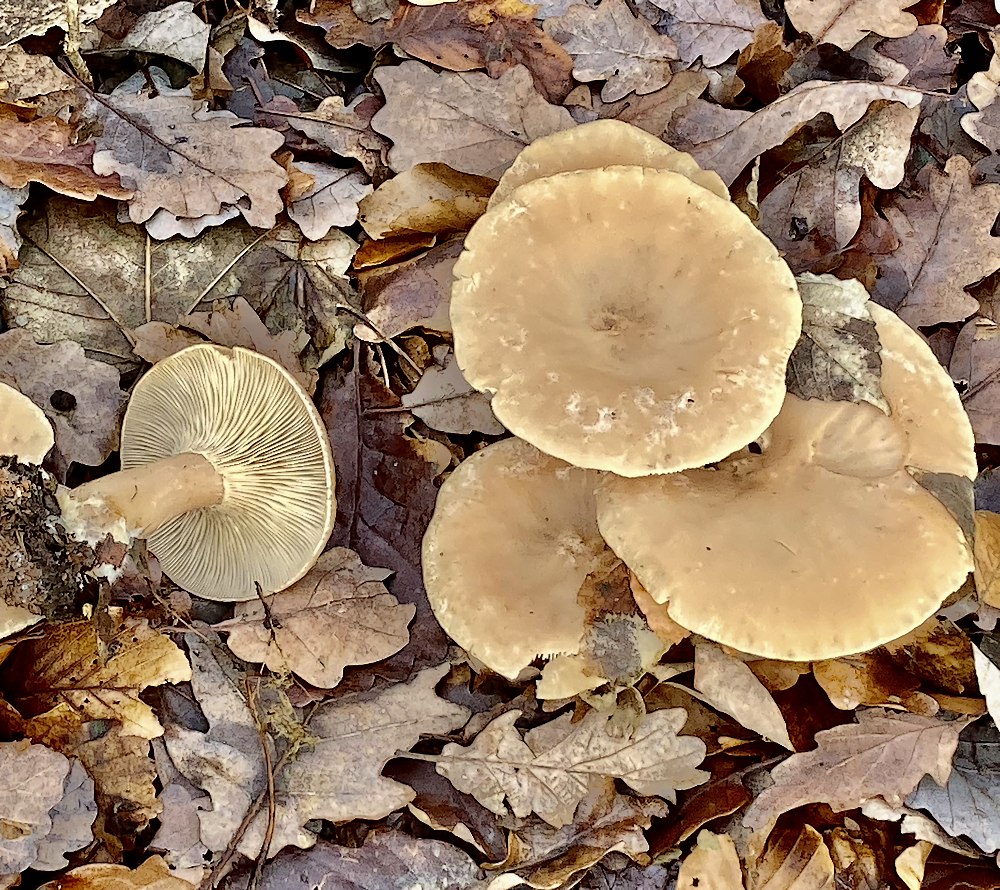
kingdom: Fungi
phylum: Basidiomycota
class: Agaricomycetes
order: Agaricales
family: Tricholomataceae
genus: Infundibulicybe
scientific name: Infundibulicybe geotropa
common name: stor tragthat
